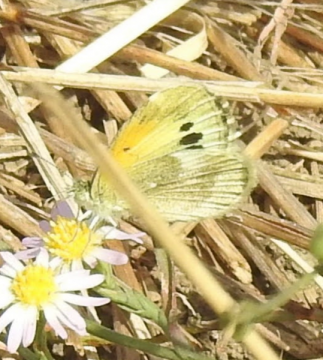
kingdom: Animalia
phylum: Arthropoda
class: Insecta
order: Lepidoptera
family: Pieridae
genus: Nathalis
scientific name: Nathalis iole
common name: Dainty Sulphur
